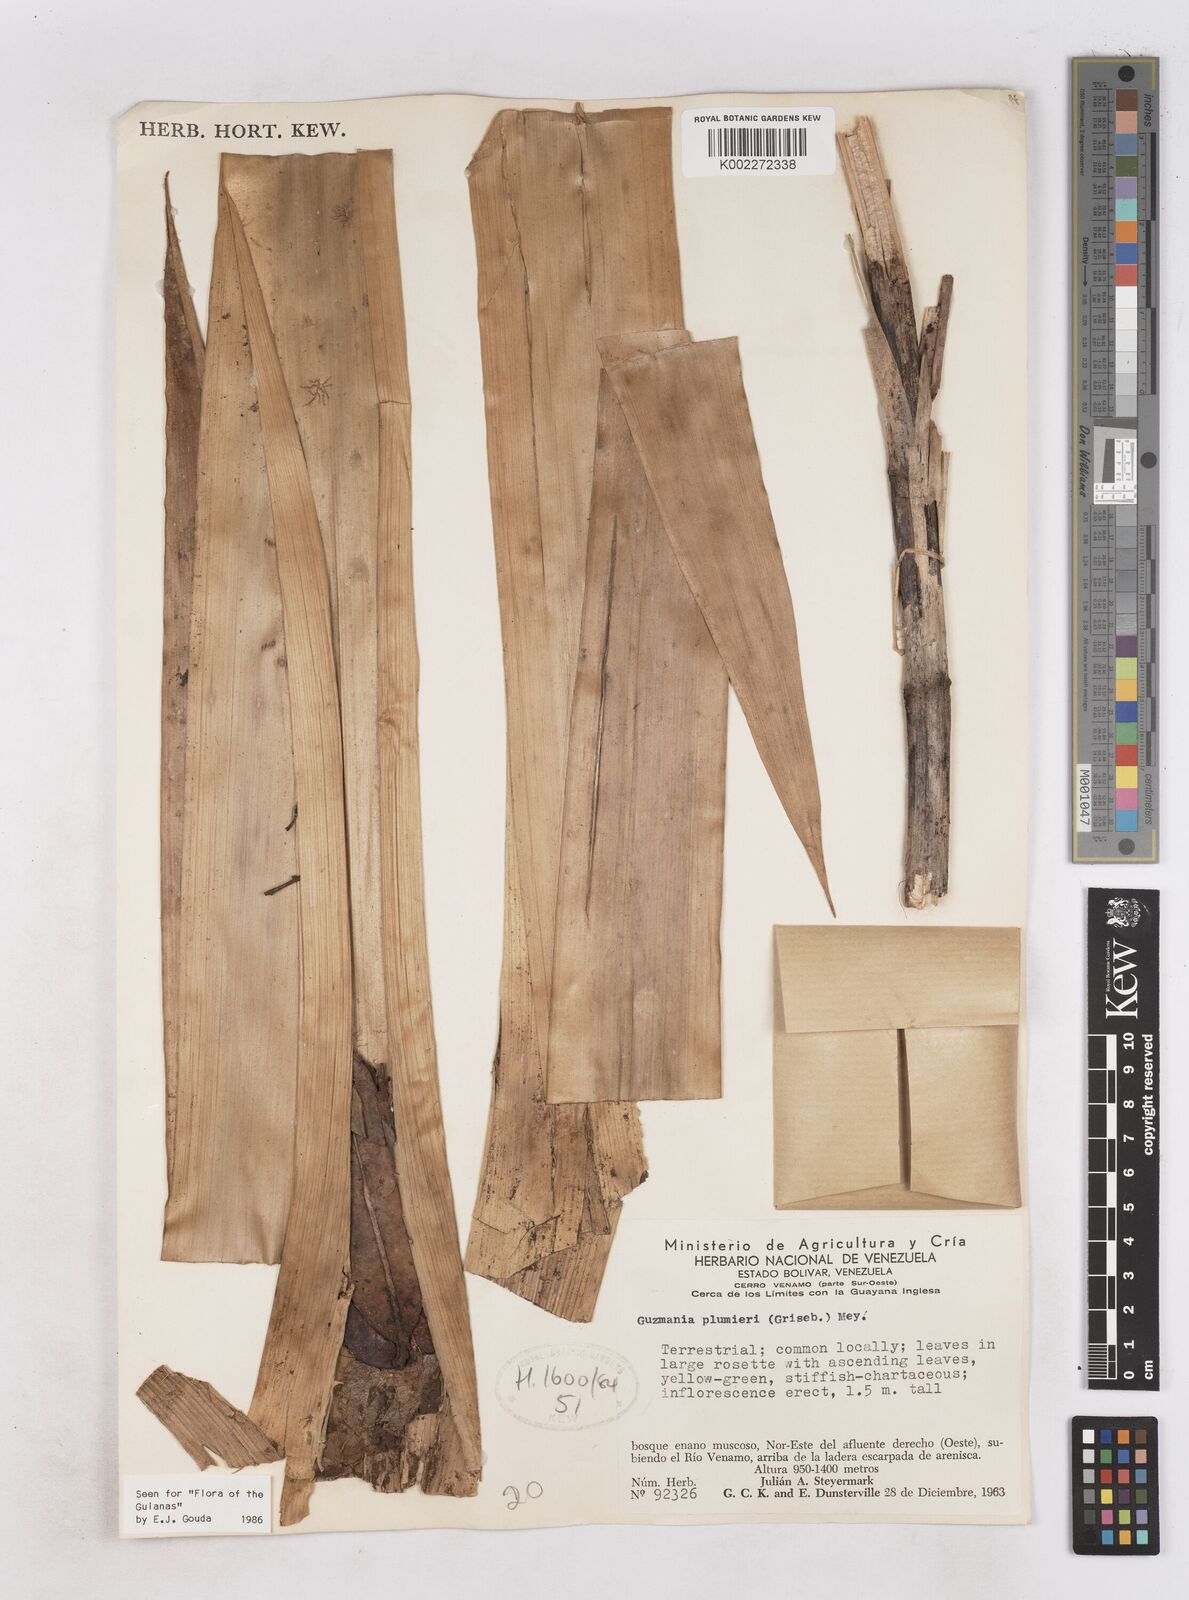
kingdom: Plantae
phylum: Tracheophyta
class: Liliopsida
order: Poales
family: Bromeliaceae
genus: Guzmania
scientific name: Guzmania plumieri
